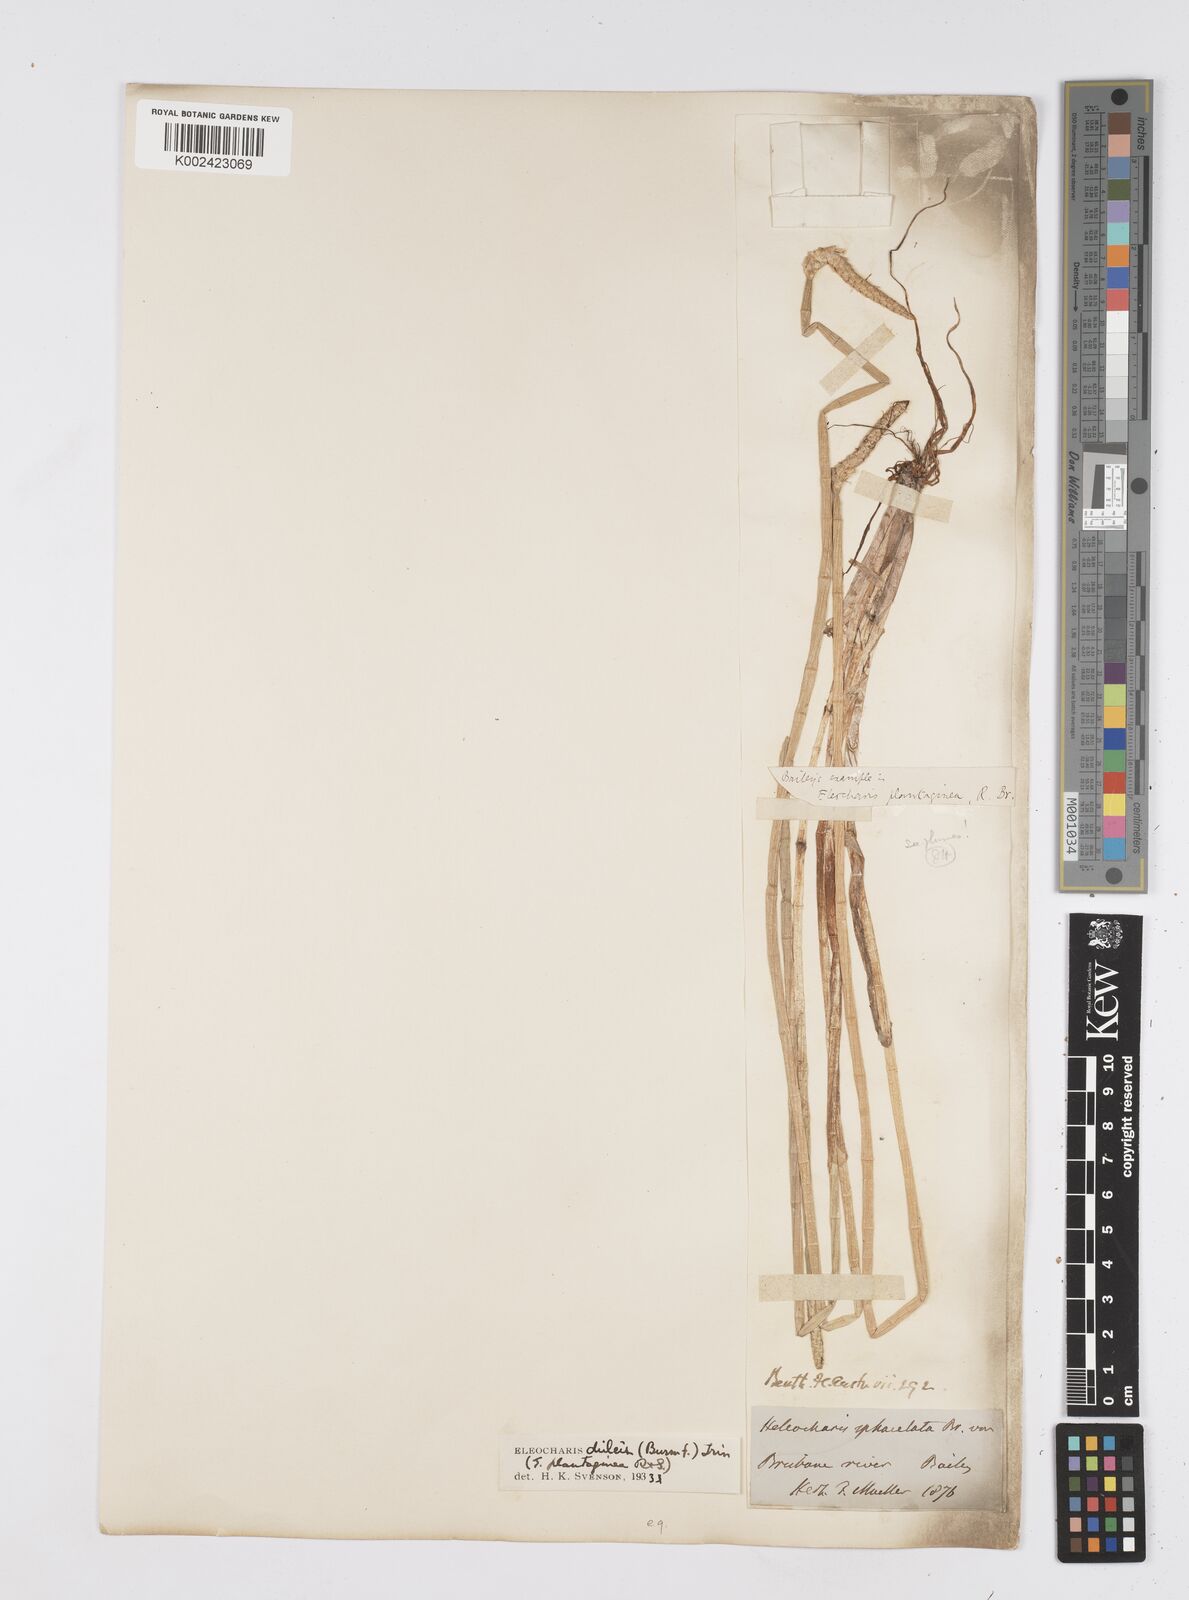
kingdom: Plantae
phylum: Tracheophyta
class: Liliopsida
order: Poales
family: Cyperaceae
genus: Eleocharis
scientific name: Eleocharis dulcis
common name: Chinese water chestnut
